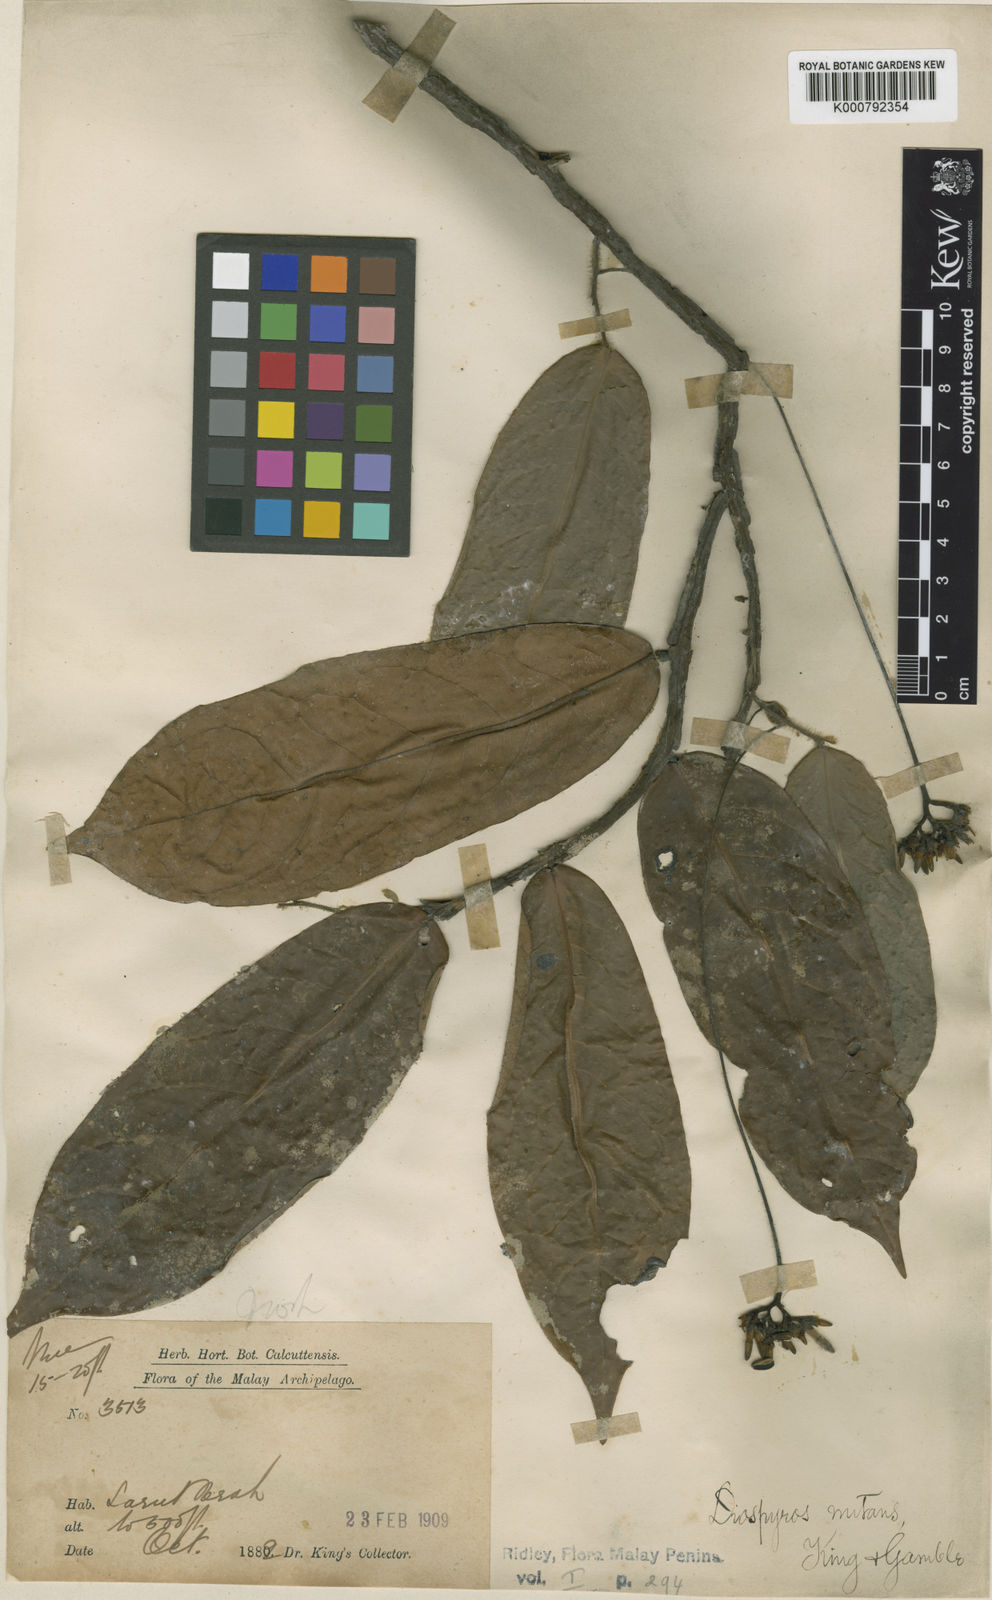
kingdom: Plantae
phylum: Tracheophyta
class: Magnoliopsida
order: Ericales
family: Ebenaceae
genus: Diospyros
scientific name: Diospyros nutans
